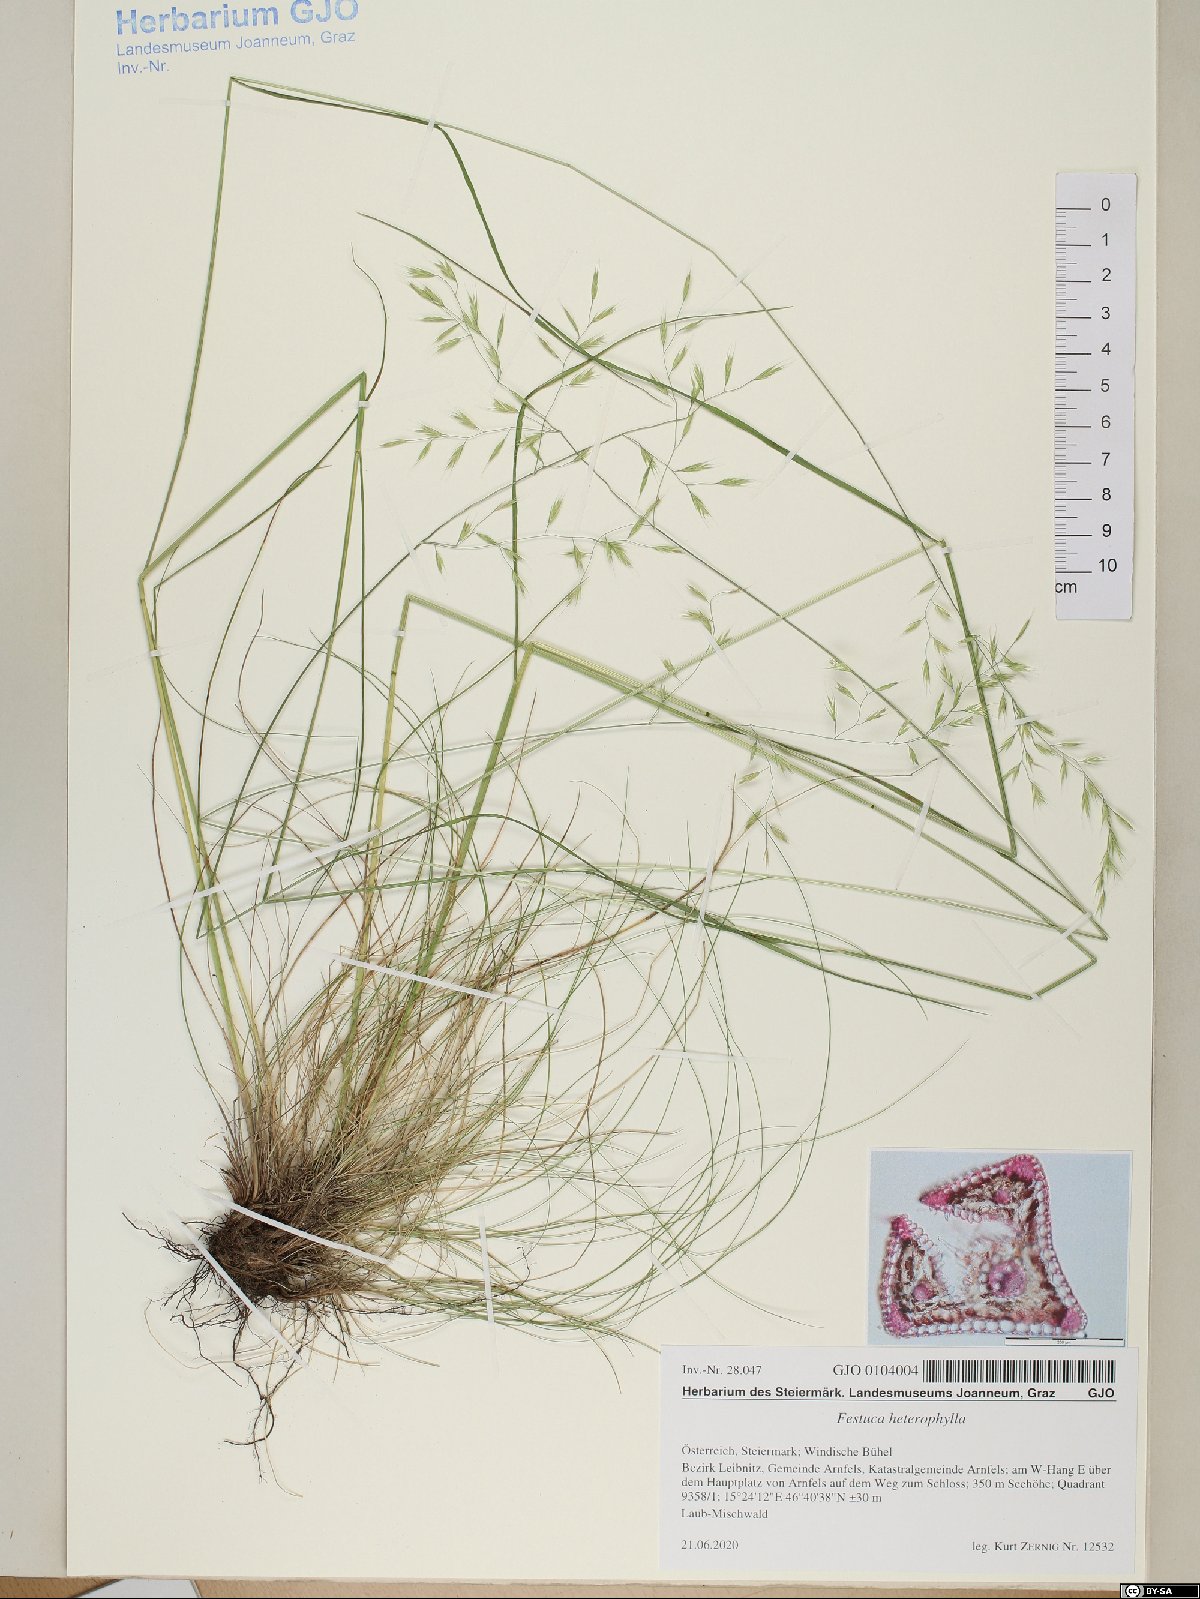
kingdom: Plantae
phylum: Tracheophyta
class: Liliopsida
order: Poales
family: Poaceae
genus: Festuca
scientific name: Festuca heterophylla
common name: Various-leaved fescue
